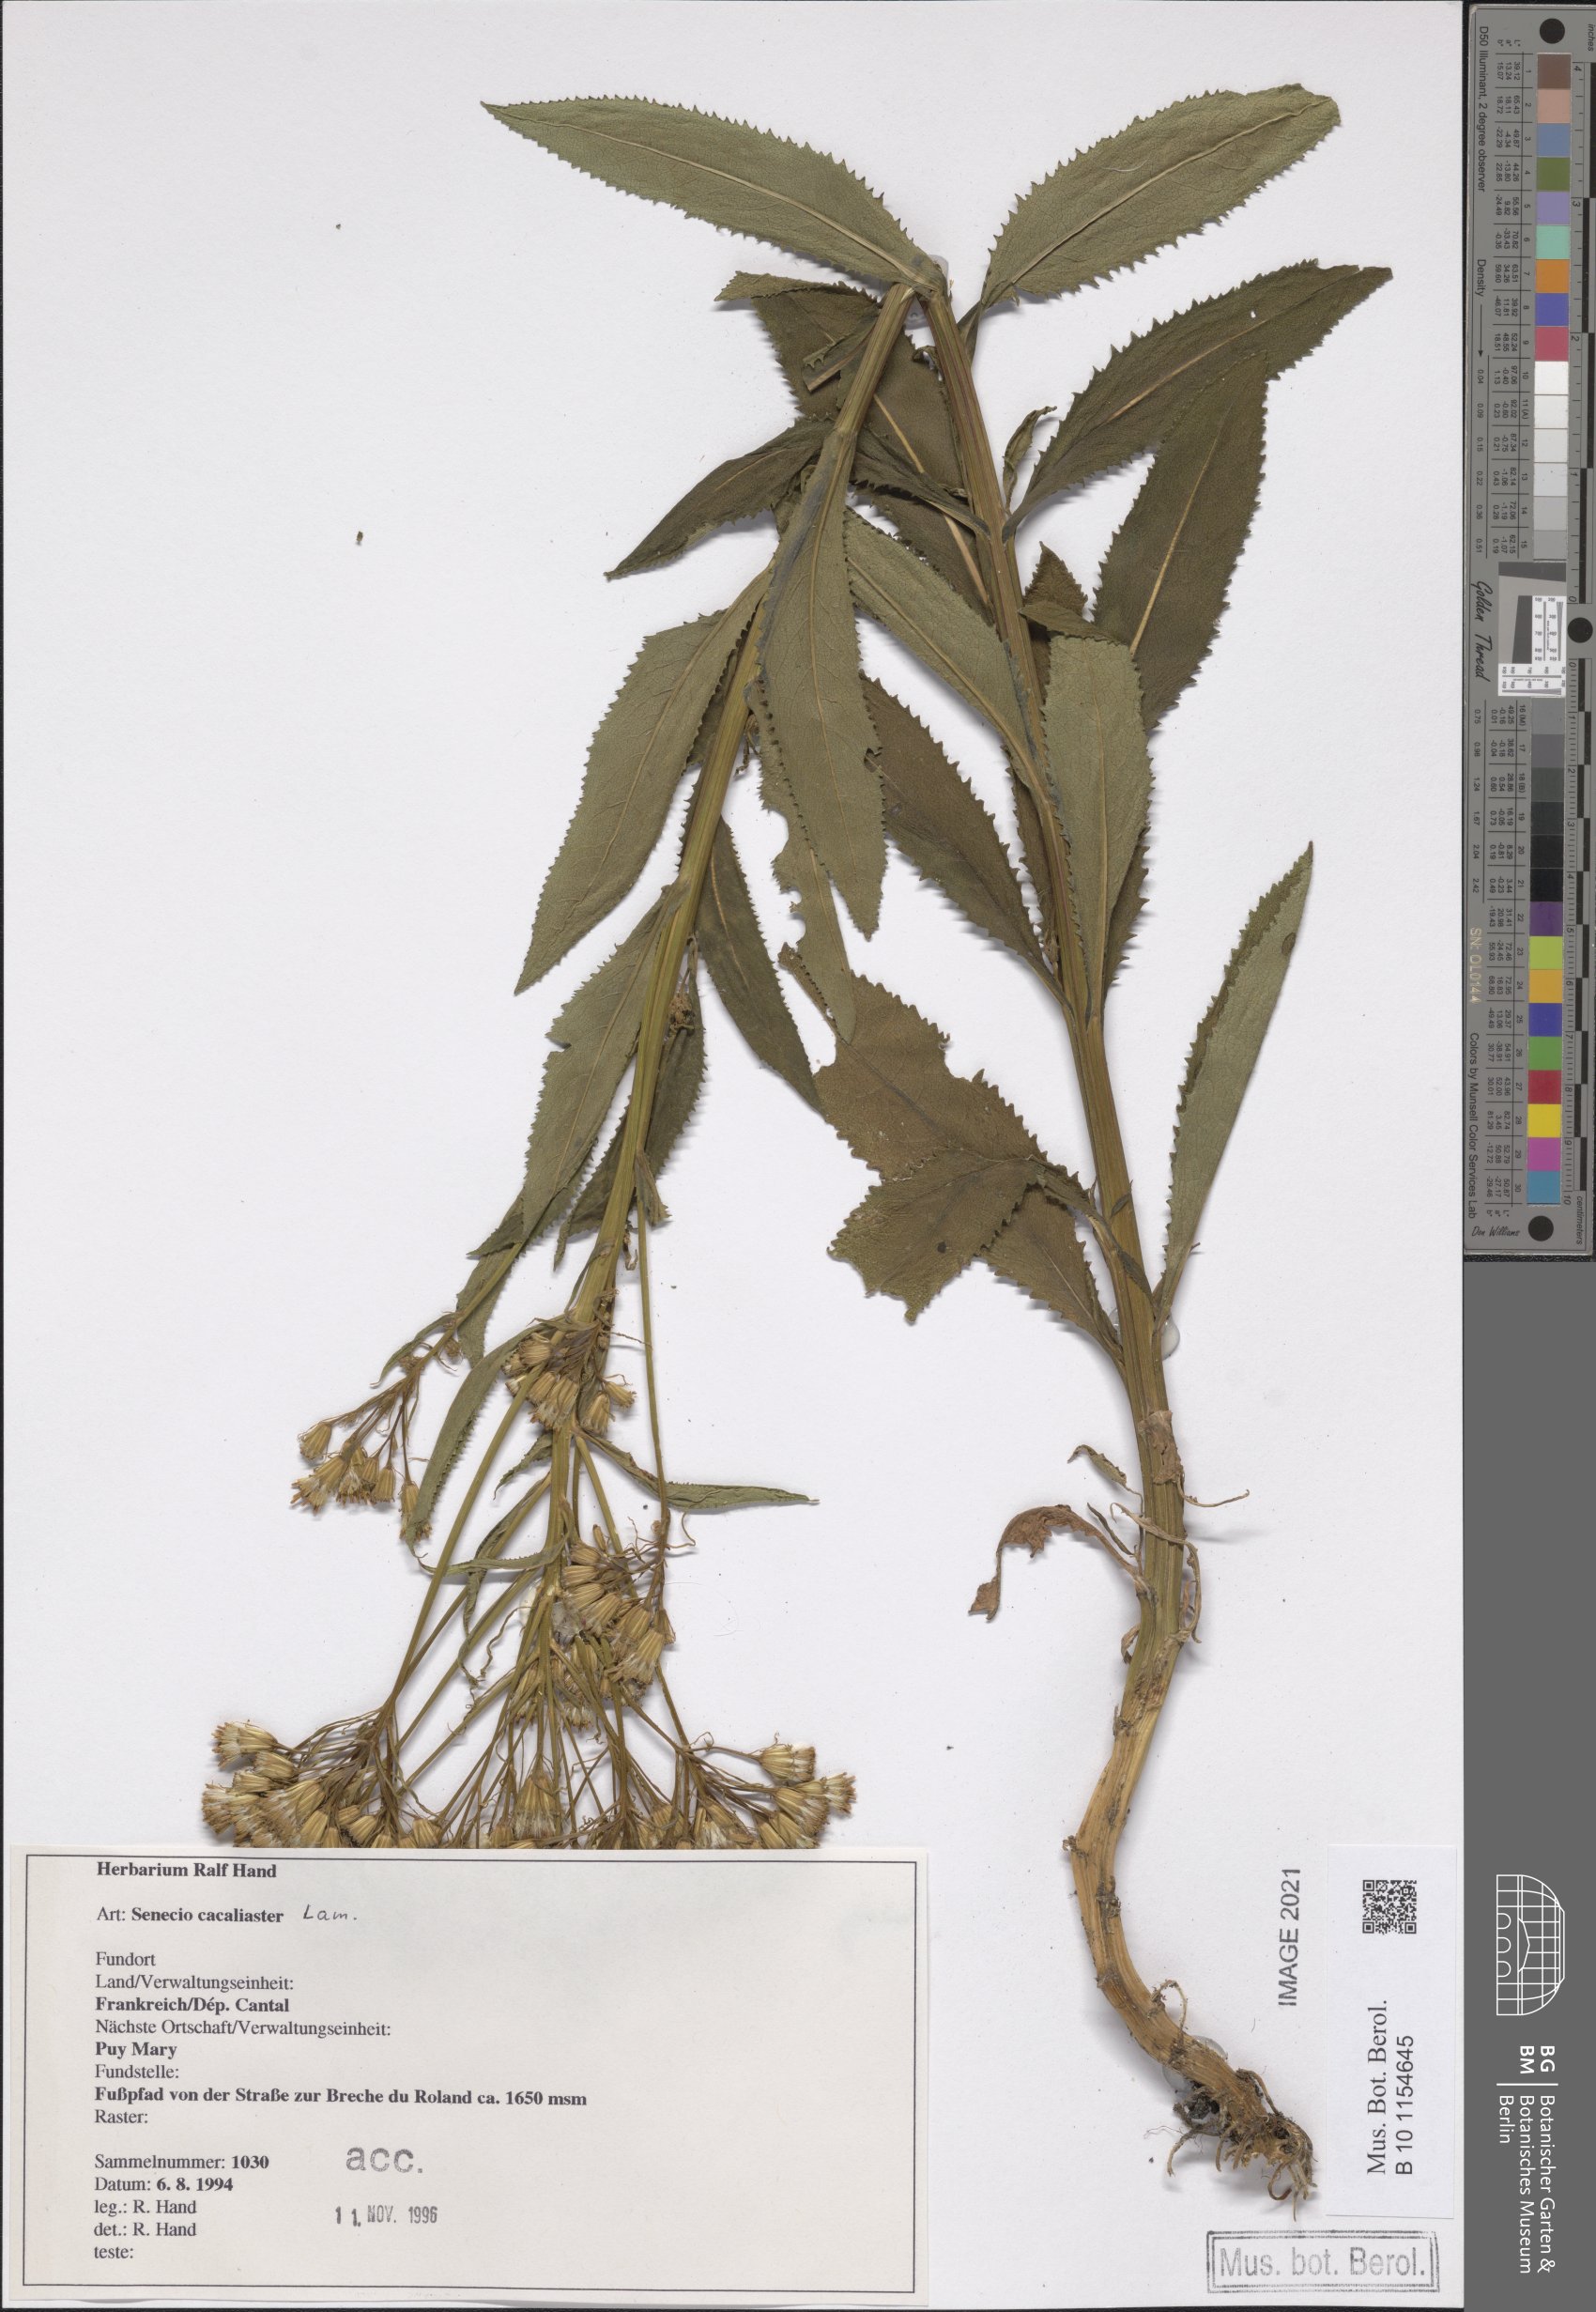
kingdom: Plantae
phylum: Tracheophyta
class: Magnoliopsida
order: Asterales
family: Asteraceae
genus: Senecio
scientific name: Senecio cacaliaster
